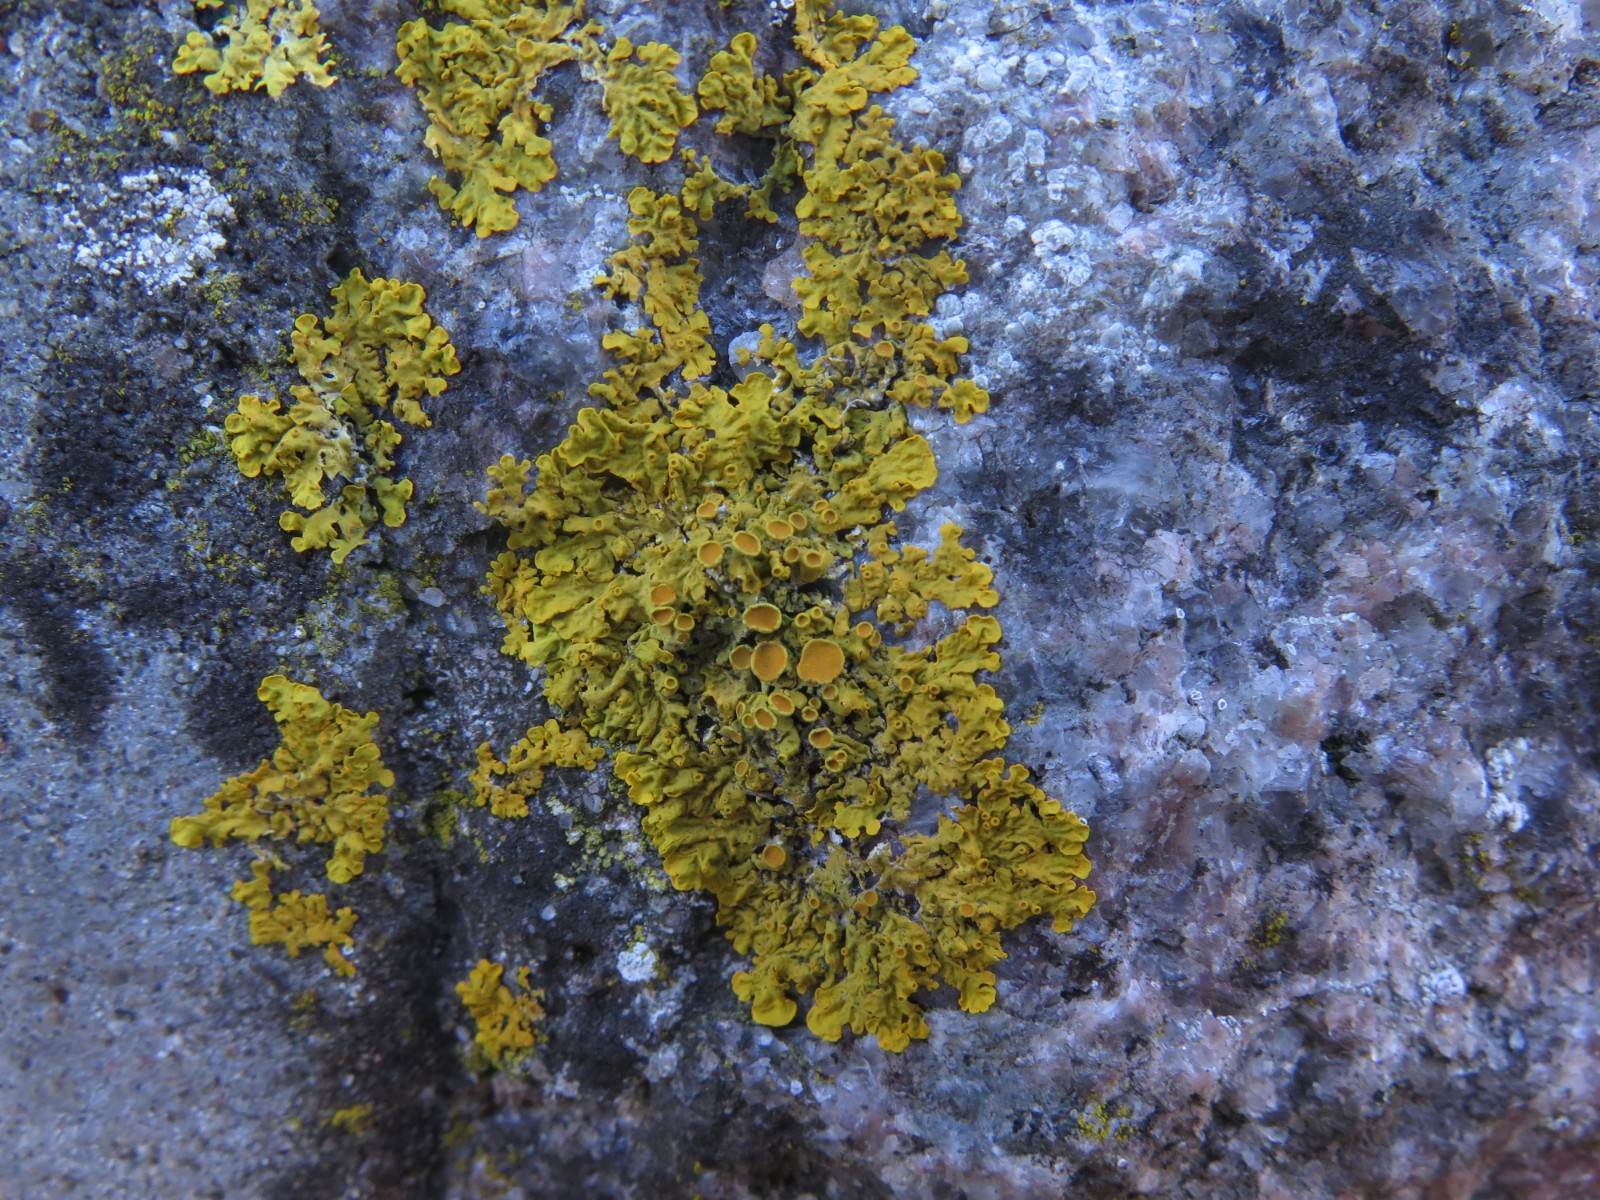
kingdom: Fungi
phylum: Ascomycota
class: Lecanoromycetes
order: Teloschistales
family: Teloschistaceae
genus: Xanthoria
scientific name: Xanthoria parietina
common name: almindelig væggelav
